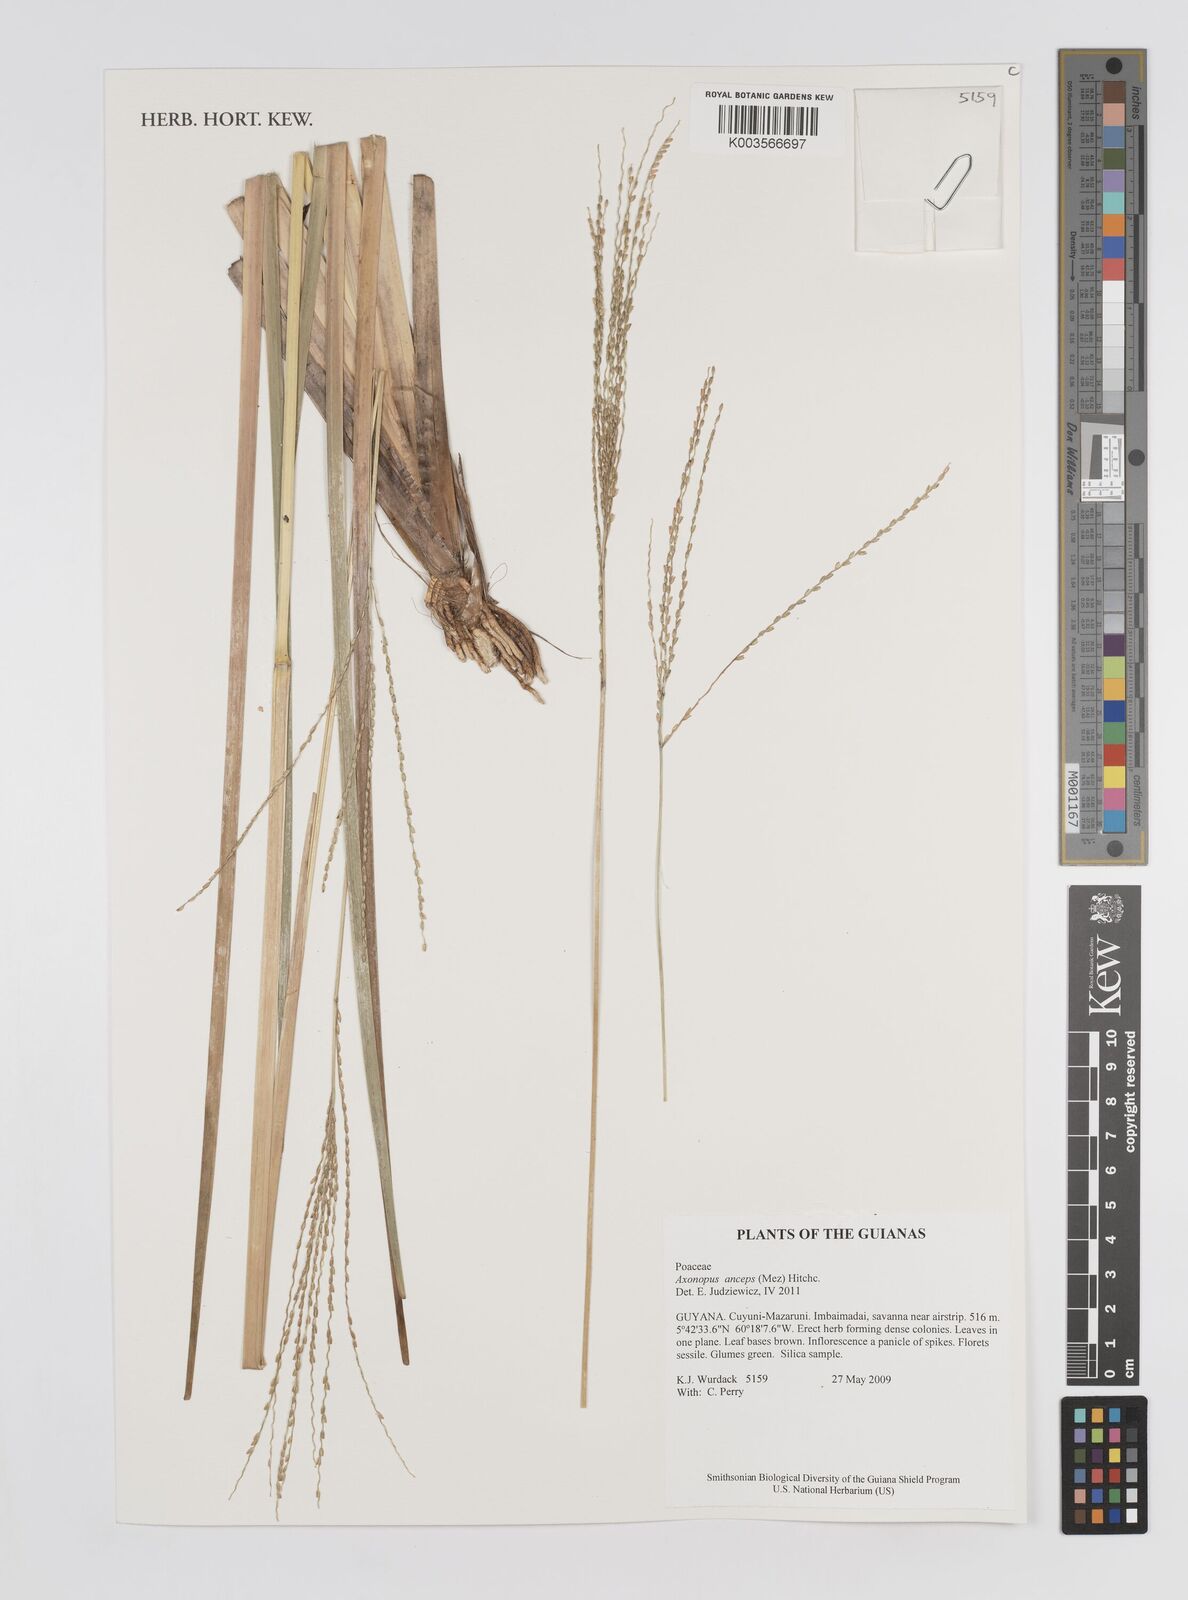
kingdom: Plantae
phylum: Tracheophyta
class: Liliopsida
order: Poales
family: Poaceae
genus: Axonopus
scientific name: Axonopus anceps
